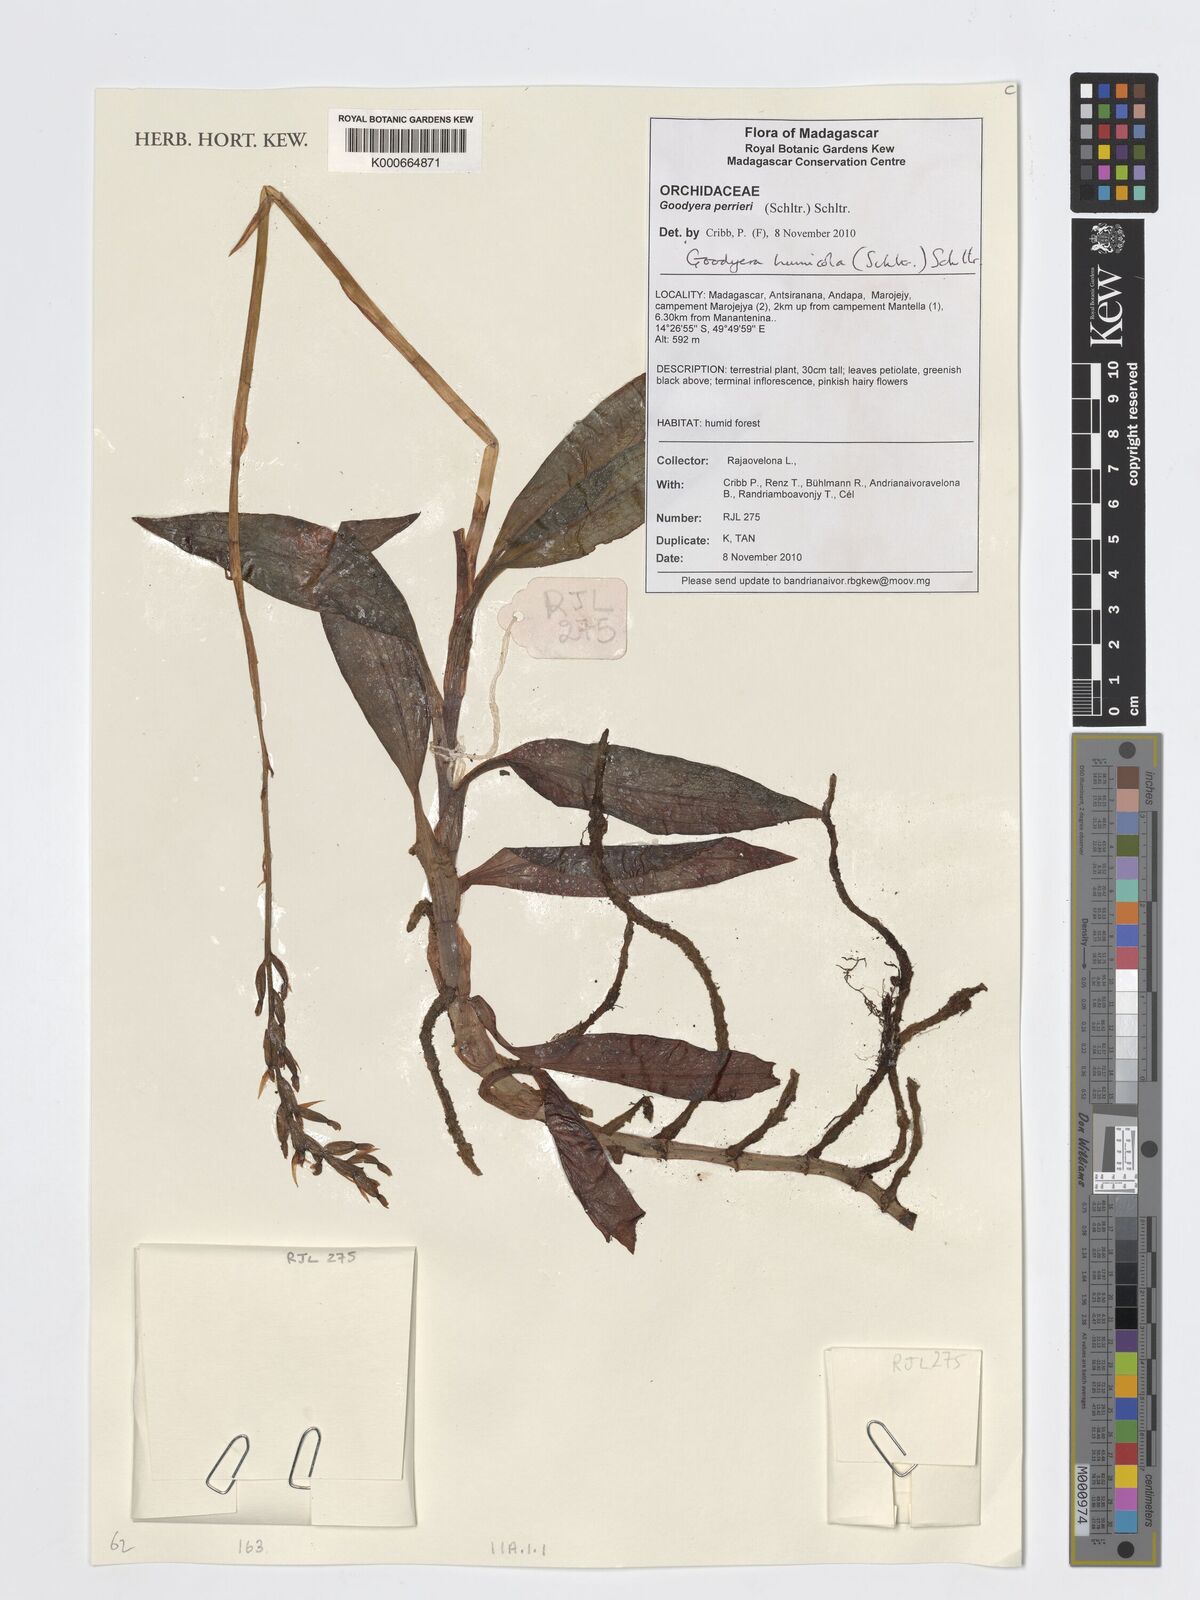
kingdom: Plantae
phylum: Tracheophyta
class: Liliopsida
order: Asparagales
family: Orchidaceae
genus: Goodyera
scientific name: Goodyera perrieri
